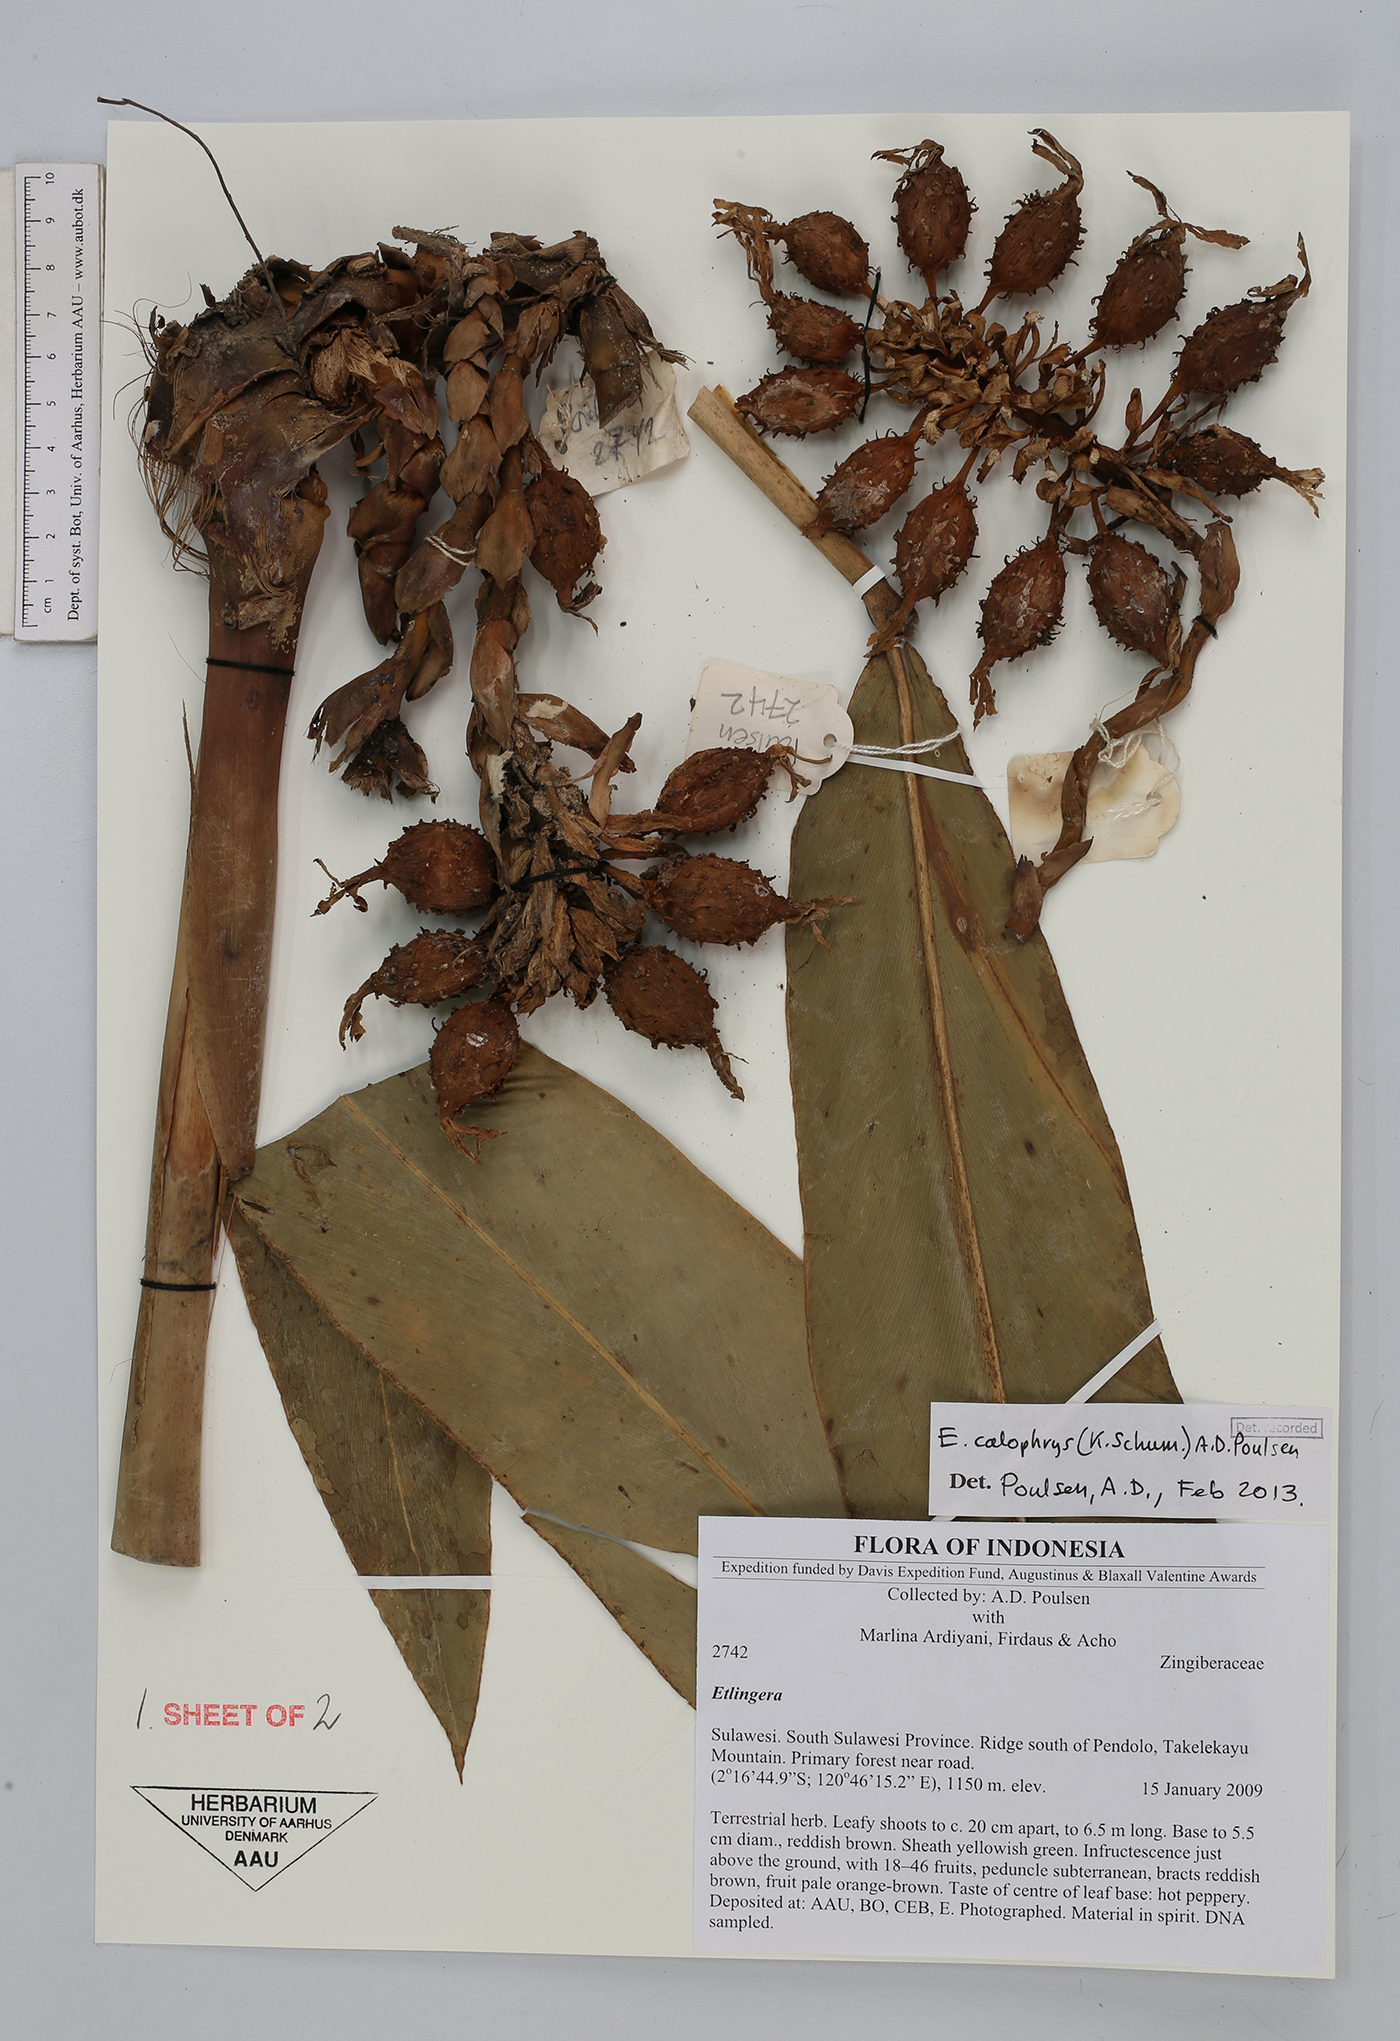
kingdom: Plantae
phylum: Tracheophyta
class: Liliopsida
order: Zingiberales
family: Zingiberaceae
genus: Etlingera
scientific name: Etlingera calophrys
